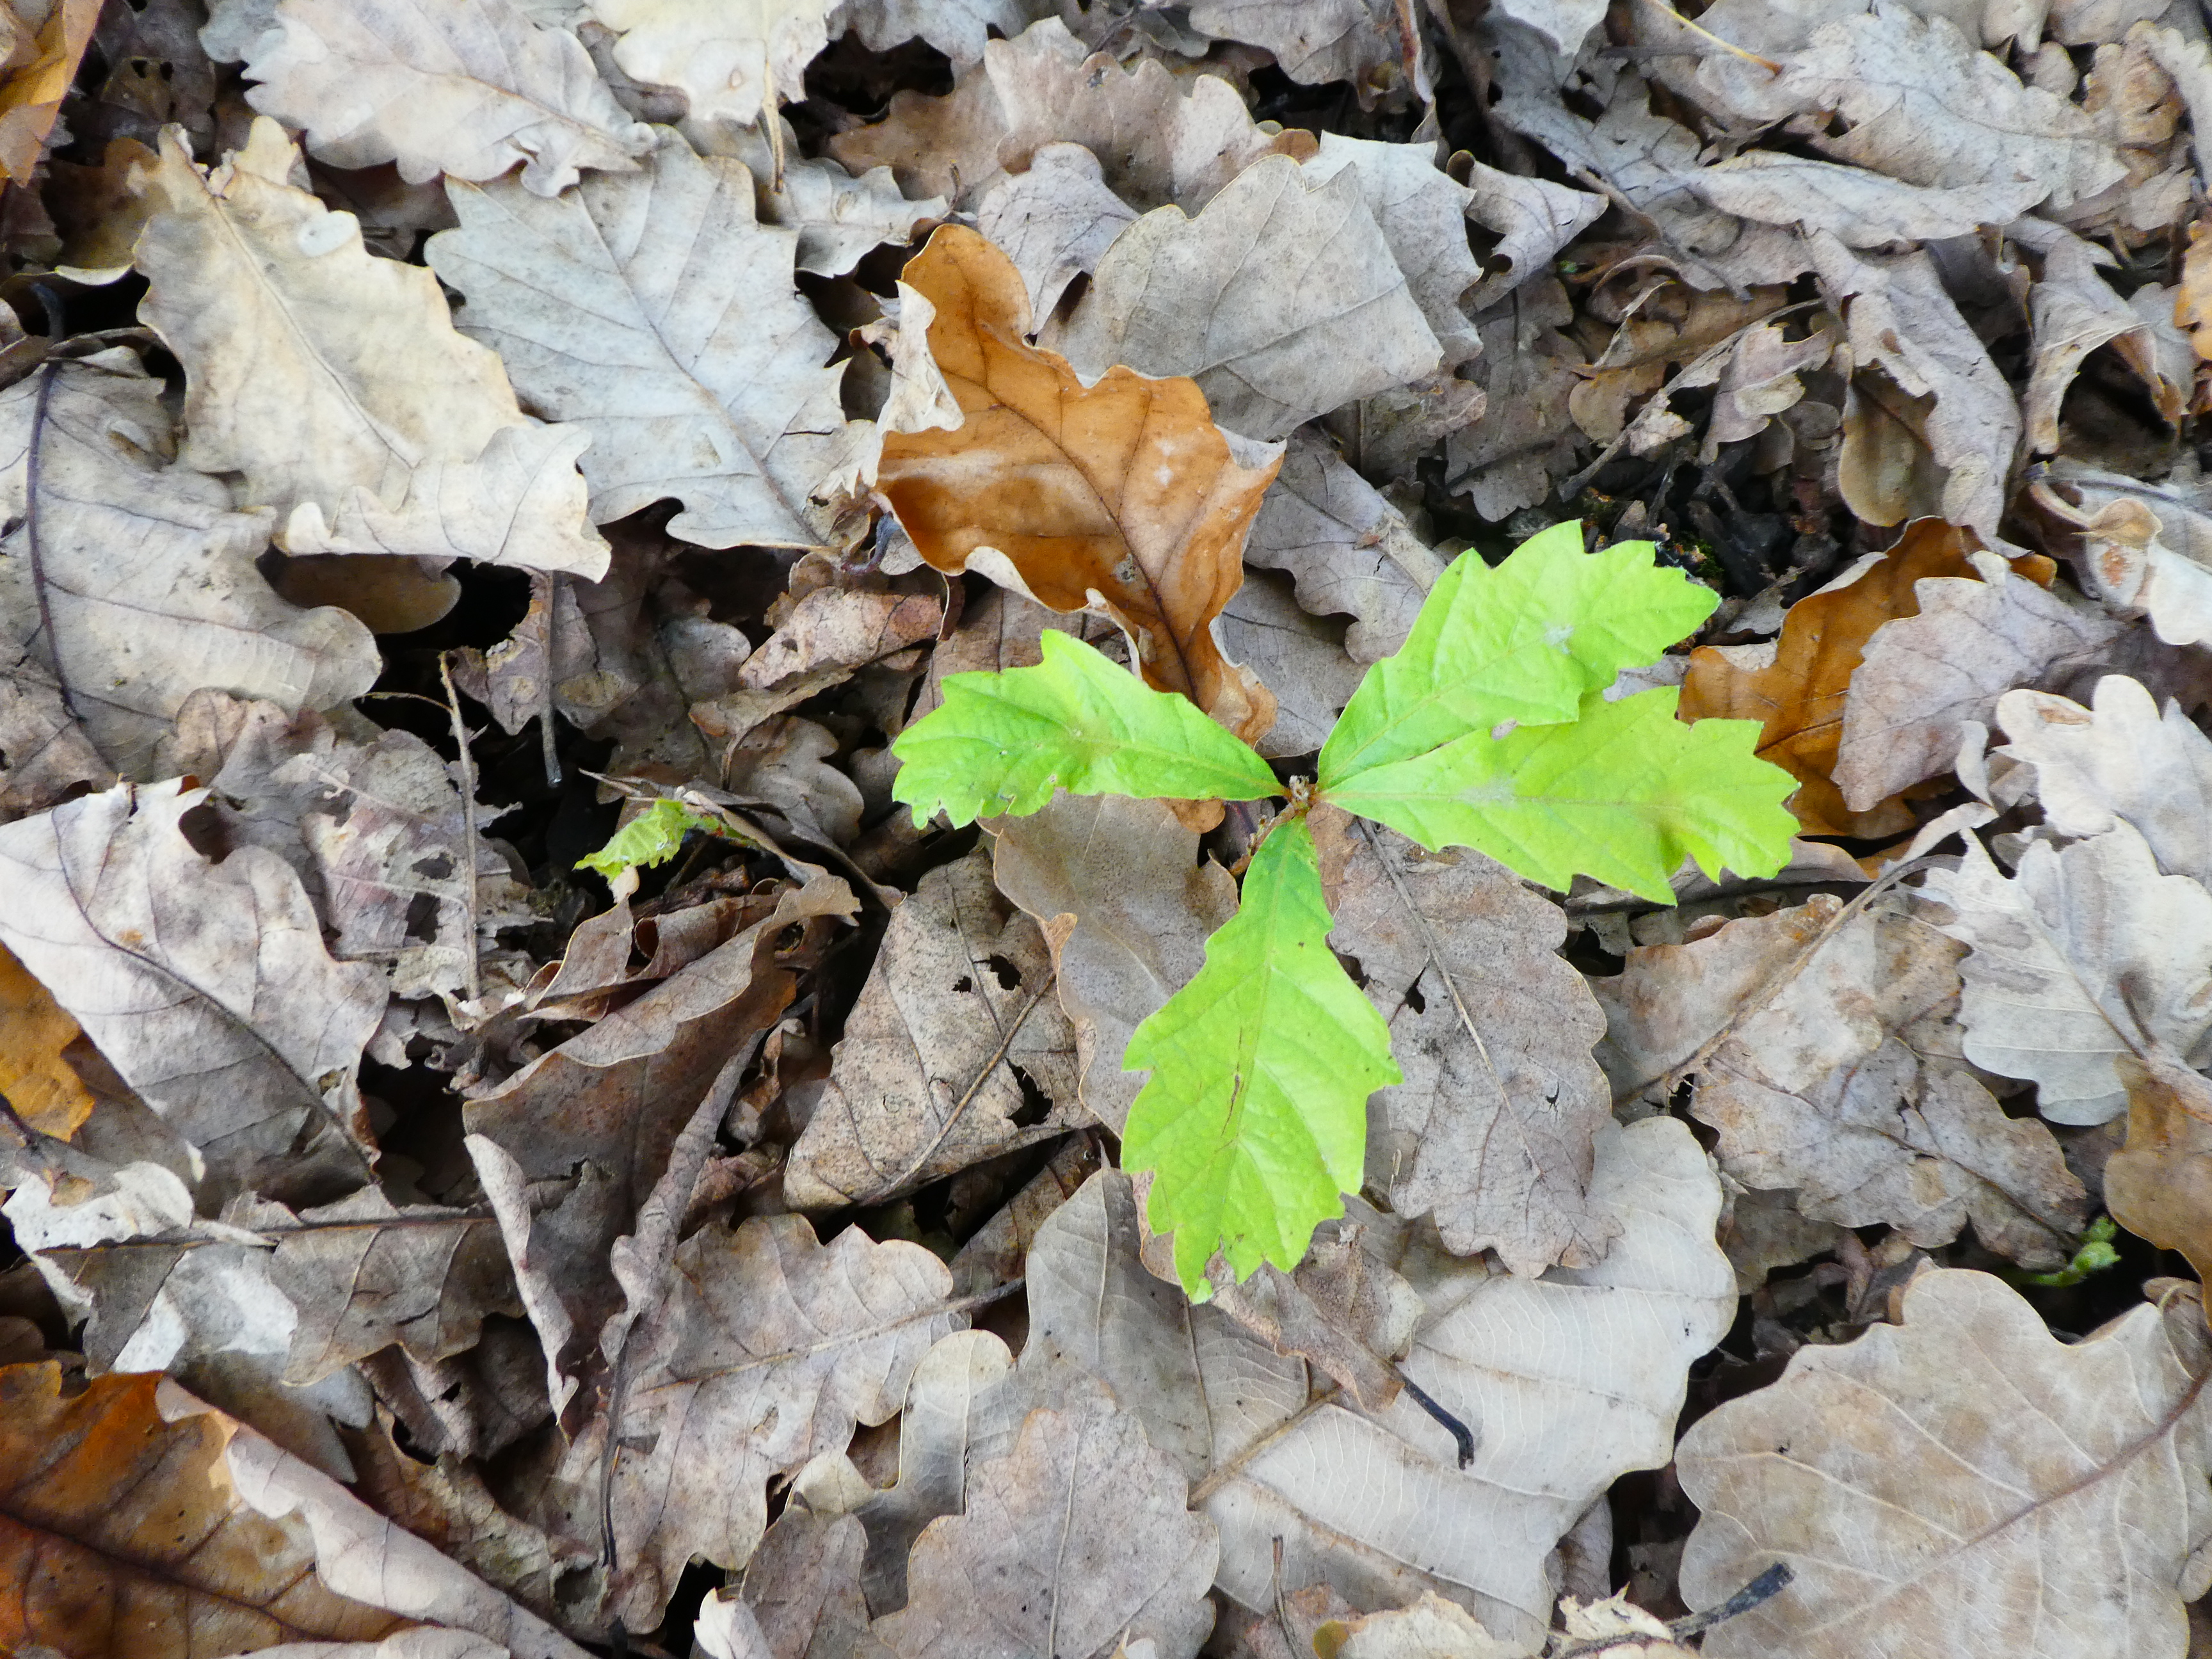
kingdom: Plantae
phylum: Tracheophyta
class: Magnoliopsida
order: Fagales
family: Fagaceae
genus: Quercus
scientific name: Quercus canariensis
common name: Algerian oak
